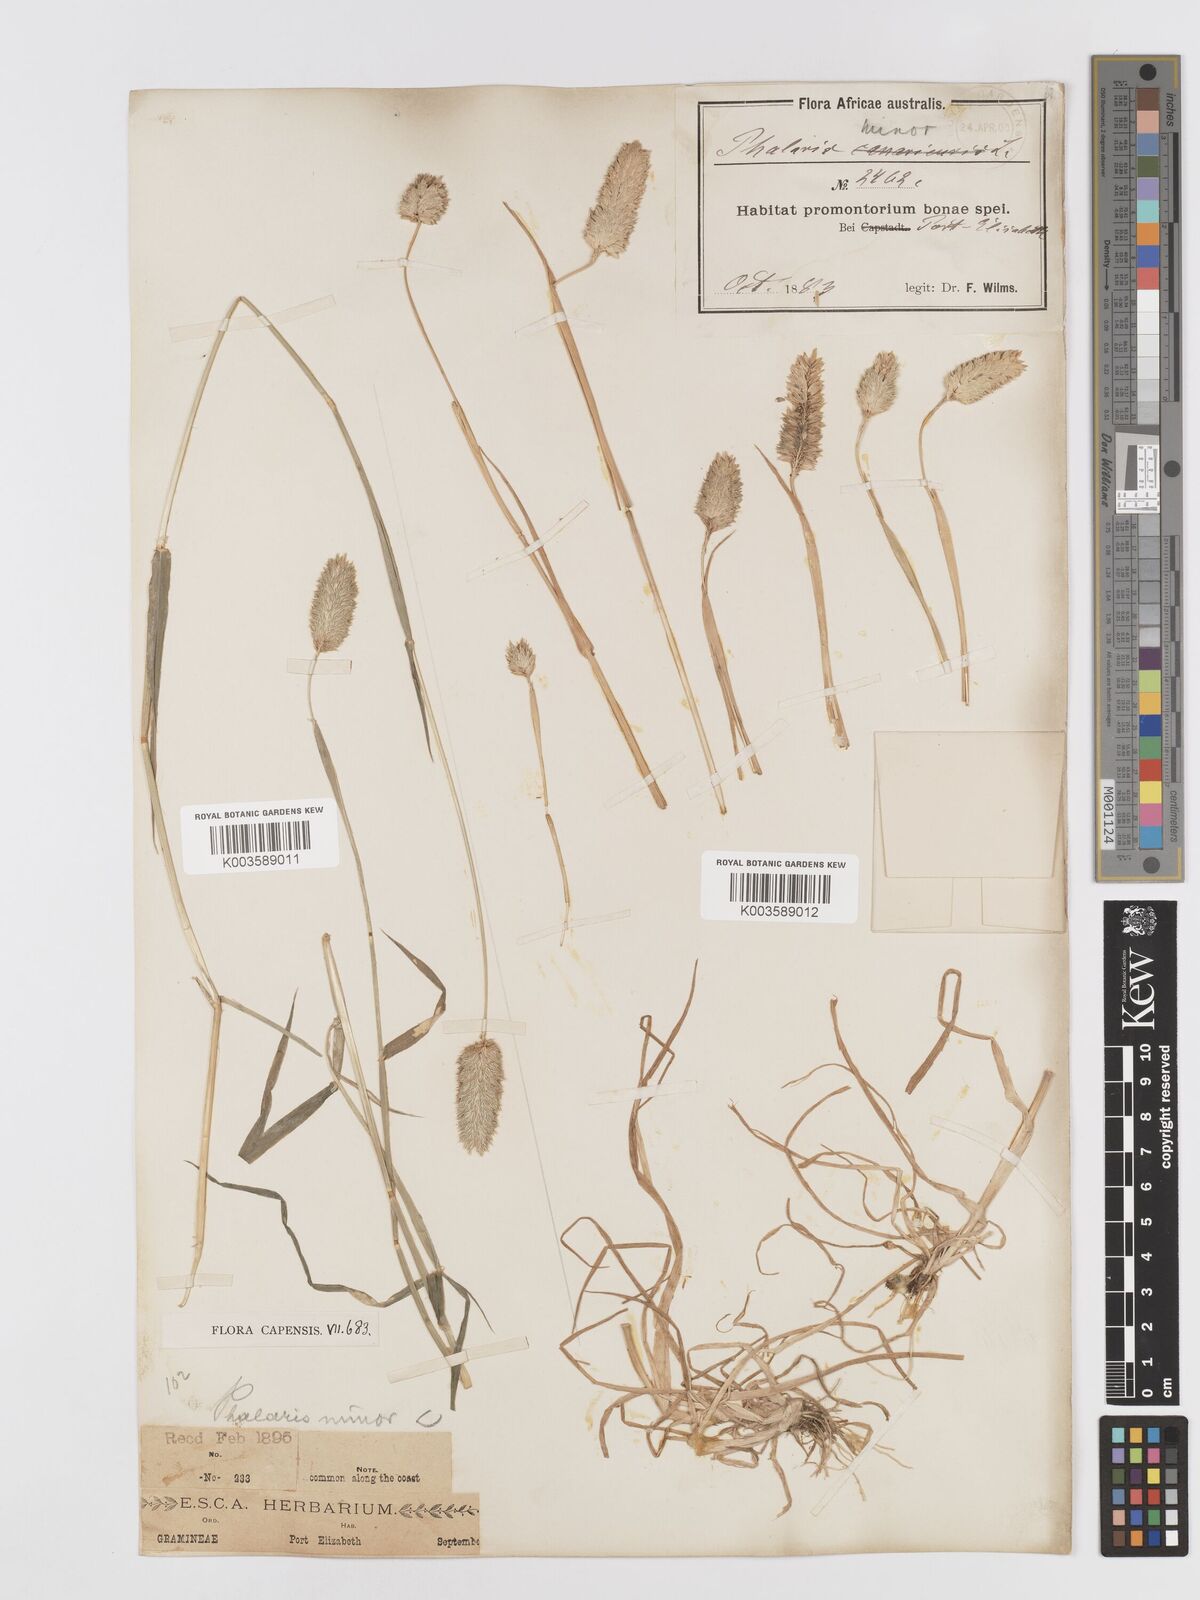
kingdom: Plantae
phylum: Tracheophyta
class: Liliopsida
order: Poales
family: Poaceae
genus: Phalaris
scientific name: Phalaris minor
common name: Littleseed canarygrass
